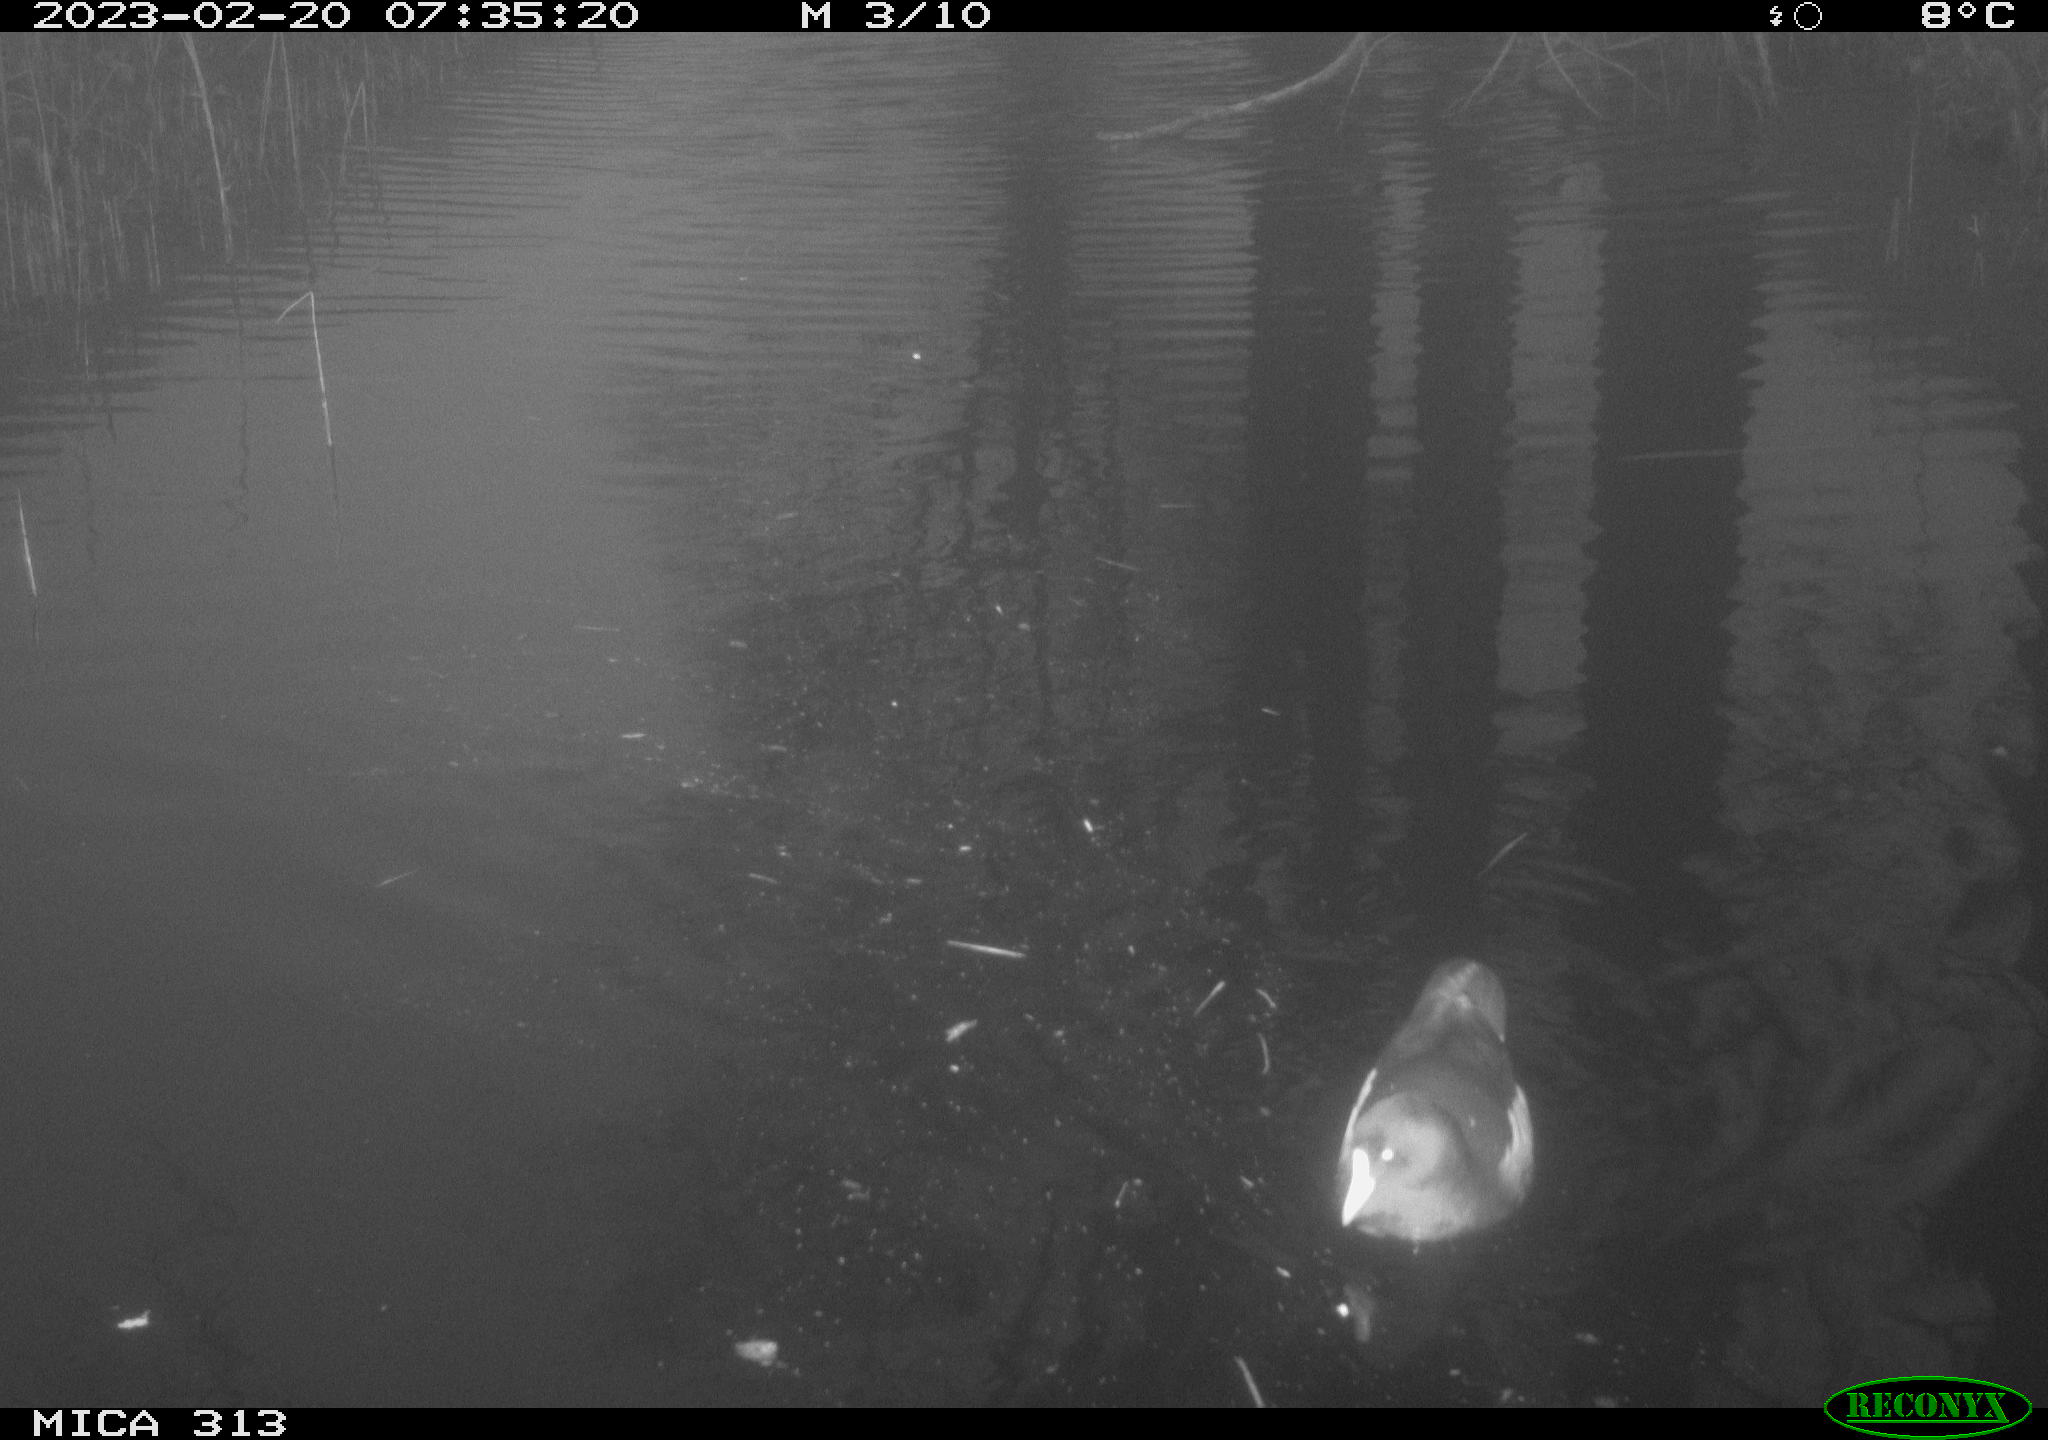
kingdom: Animalia
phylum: Chordata
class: Aves
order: Gruiformes
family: Rallidae
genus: Gallinula
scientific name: Gallinula chloropus
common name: Common moorhen
